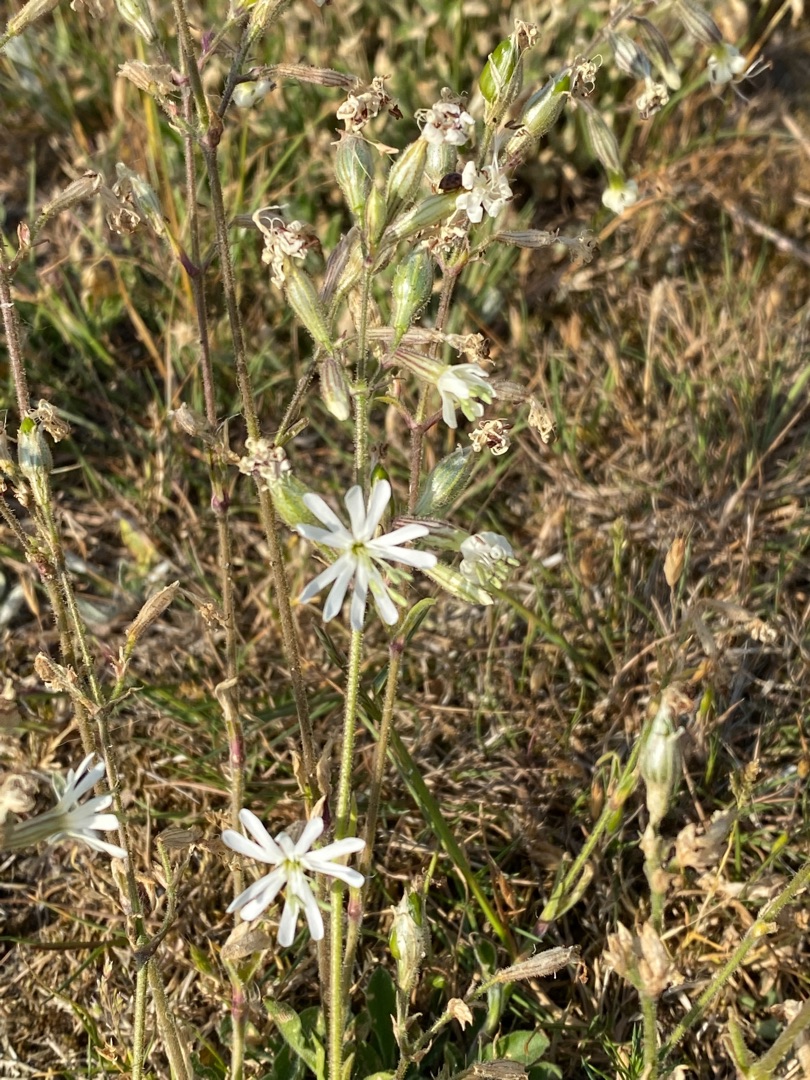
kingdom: Plantae
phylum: Tracheophyta
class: Magnoliopsida
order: Caryophyllales
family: Caryophyllaceae
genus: Silene
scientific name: Silene nutans
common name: Nikkende limurt
